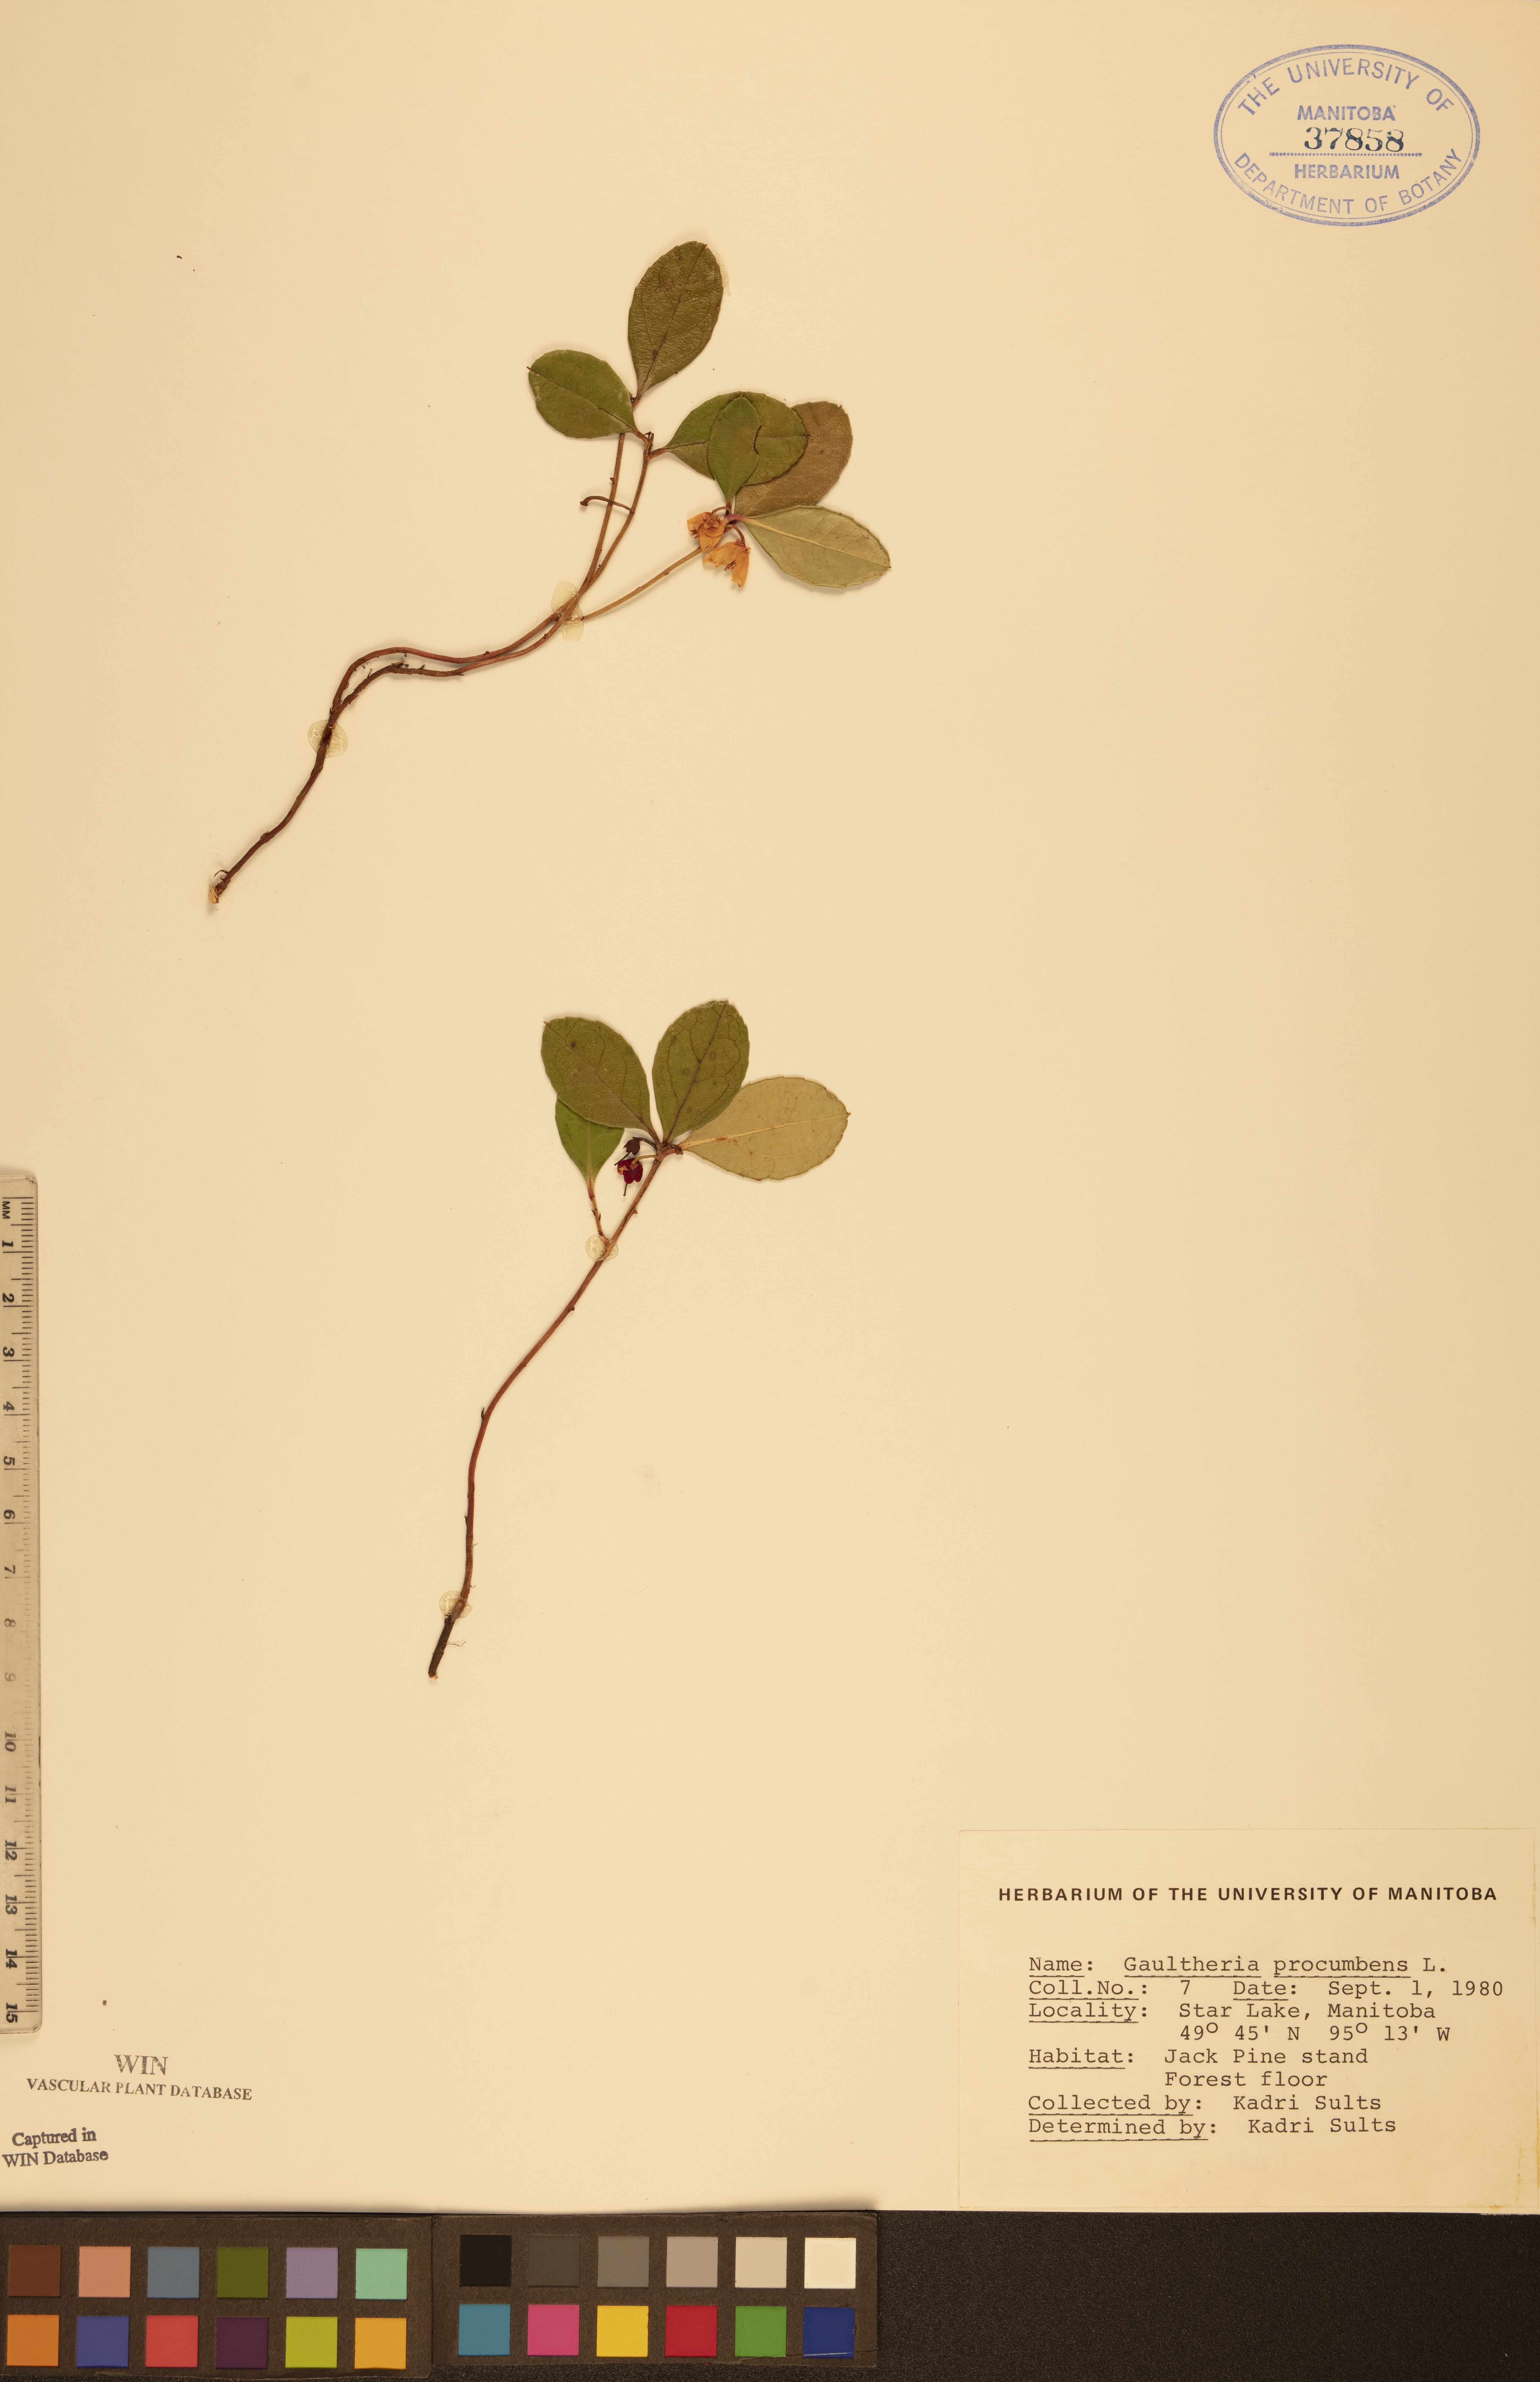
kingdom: Plantae
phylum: Tracheophyta
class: Magnoliopsida
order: Ericales
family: Ericaceae
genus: Gaultheria
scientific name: Gaultheria procumbens
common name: Checkerberry
